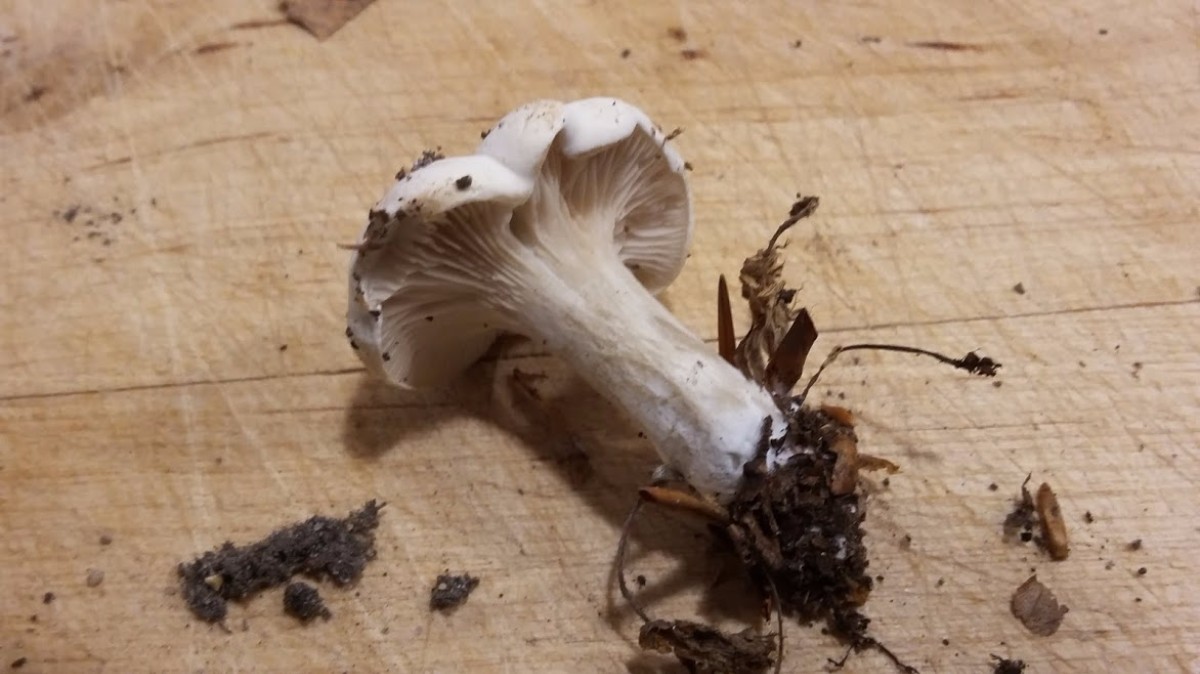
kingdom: Fungi
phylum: Basidiomycota
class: Agaricomycetes
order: Agaricales
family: Entolomataceae
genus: Clitopilus
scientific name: Clitopilus prunulus
